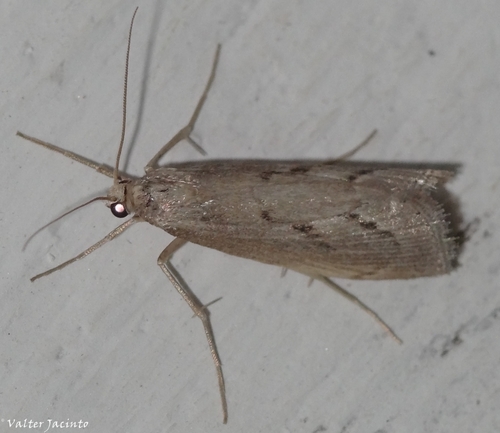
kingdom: Animalia
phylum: Arthropoda
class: Insecta
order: Lepidoptera
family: Crambidae
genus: Agriphila
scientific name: Agriphila tersellus
